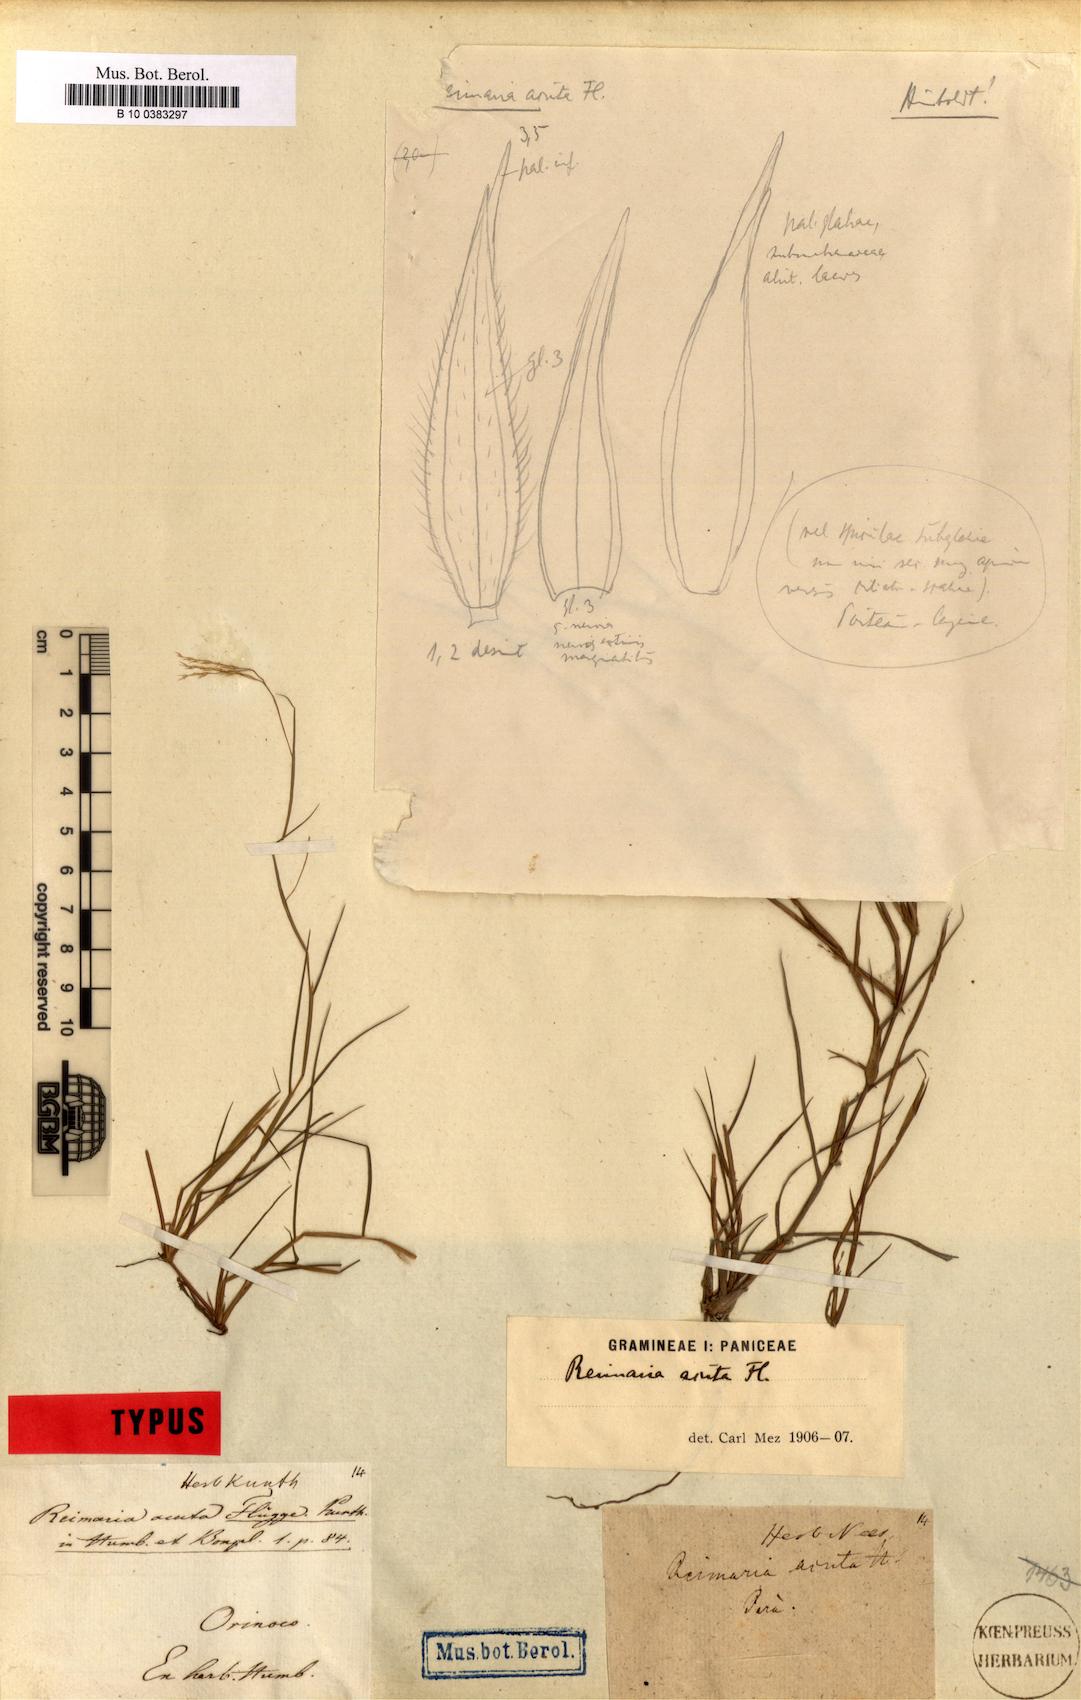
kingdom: Plantae
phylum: Tracheophyta
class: Liliopsida
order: Poales
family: Poaceae
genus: Paspalum
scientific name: Paspalum stagnophilum
